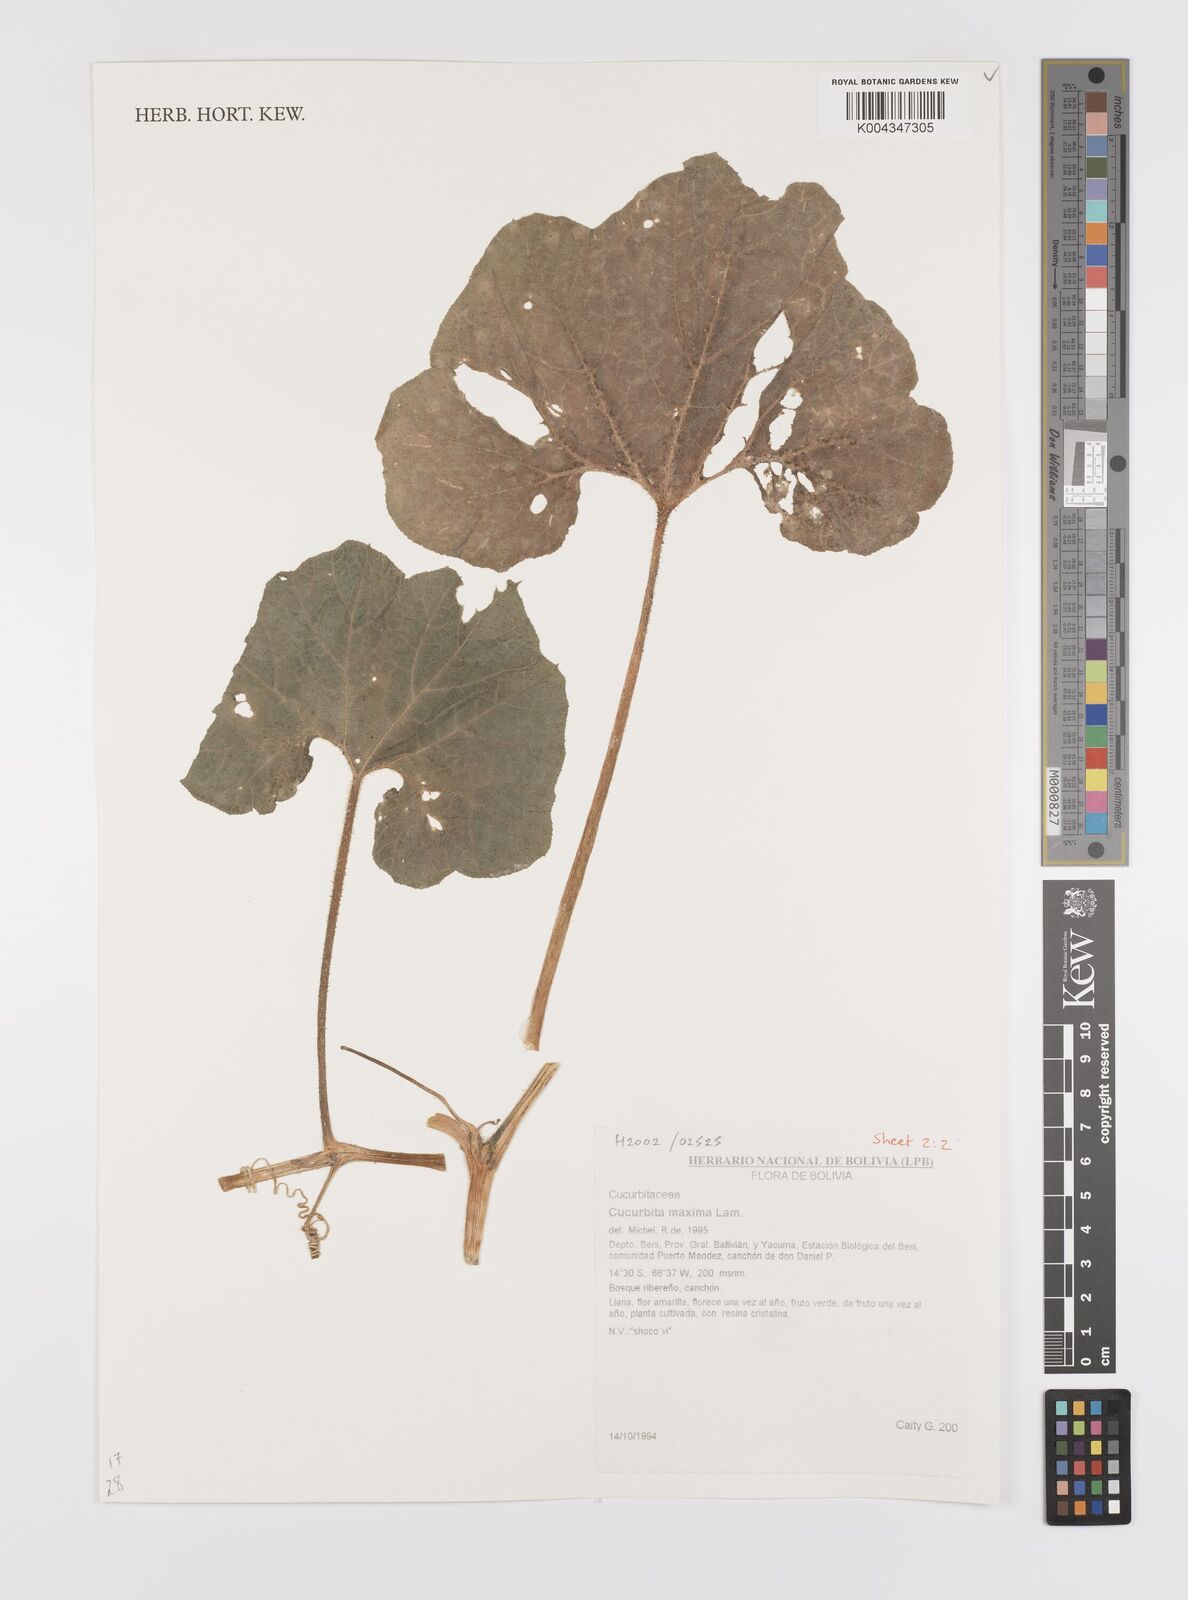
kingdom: Plantae
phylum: Tracheophyta
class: Magnoliopsida
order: Cucurbitales
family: Cucurbitaceae
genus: Cucurbita
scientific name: Cucurbita maxima
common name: Pumpkin
